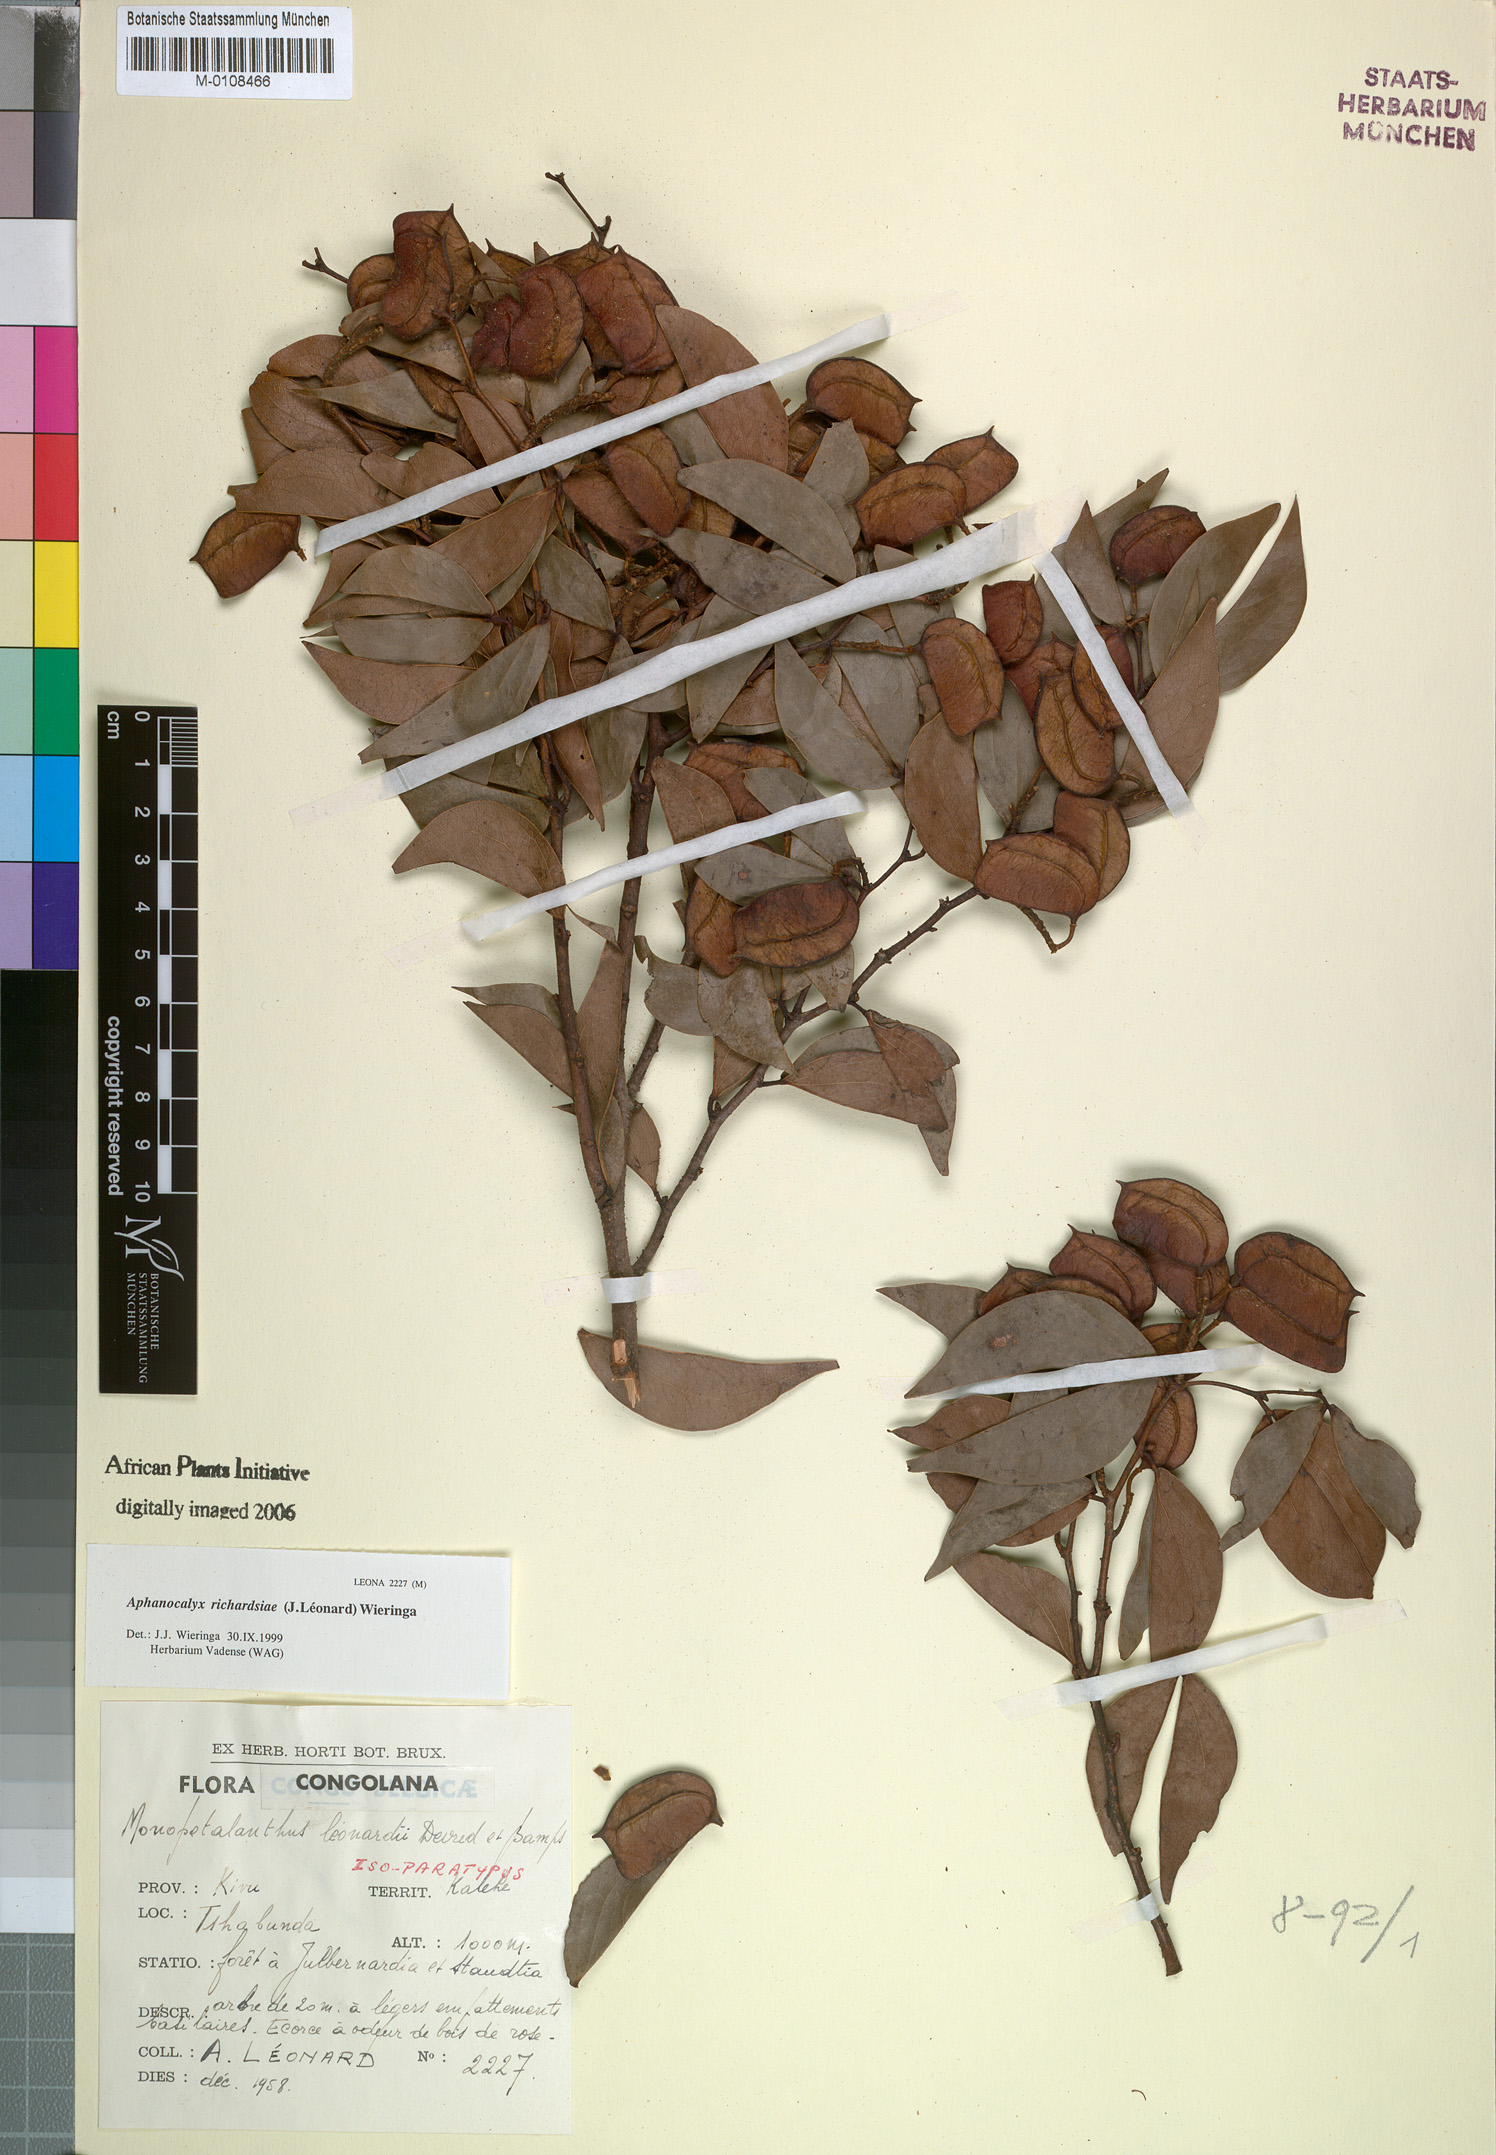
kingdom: Plantae
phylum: Tracheophyta
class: Magnoliopsida
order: Fabales
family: Fabaceae
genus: Aphanocalyx
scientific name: Aphanocalyx richardsiae
